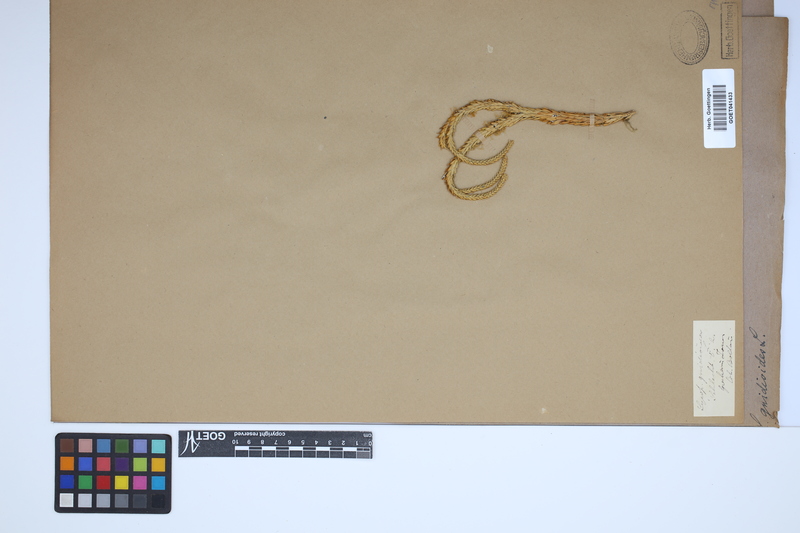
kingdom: Plantae
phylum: Tracheophyta
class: Lycopodiopsida
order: Lycopodiales
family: Lycopodiaceae
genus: Phlegmariurus
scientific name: Phlegmariurus gnidioides
